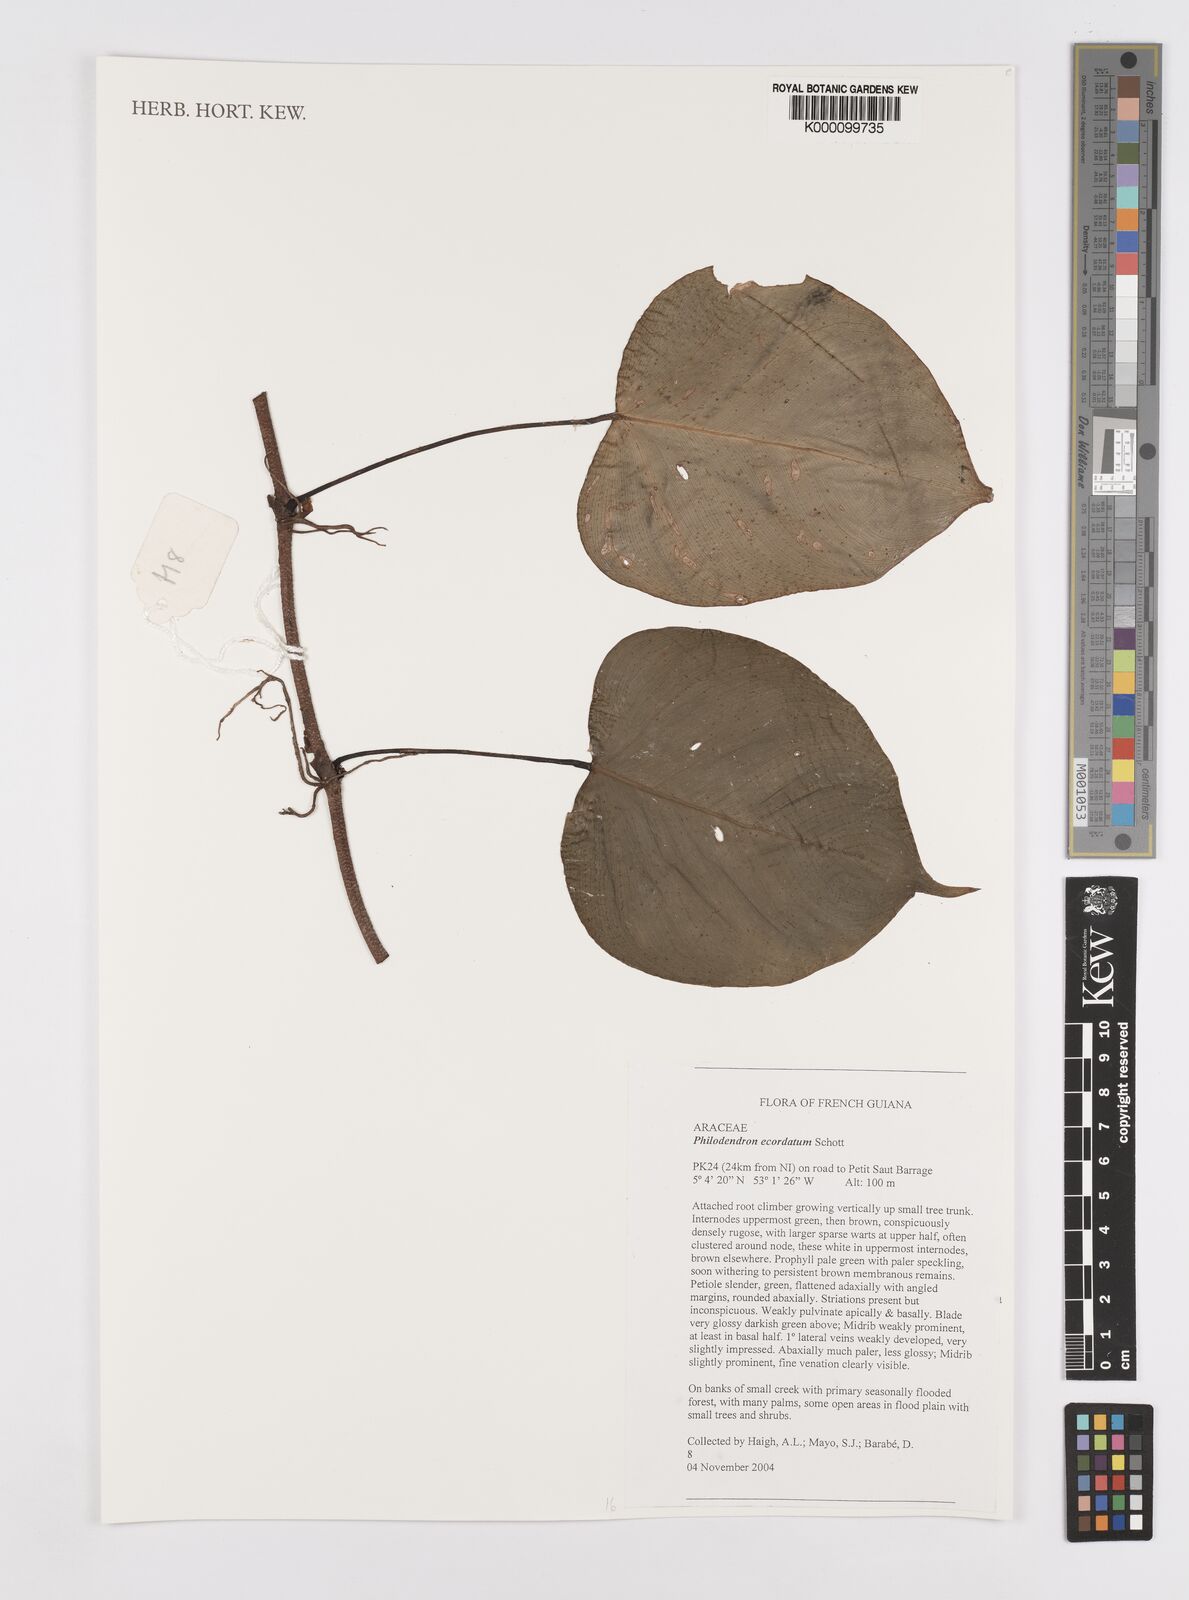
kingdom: Plantae
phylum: Tracheophyta
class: Liliopsida
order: Alismatales
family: Araceae
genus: Philodendron
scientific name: Philodendron ecordatum
